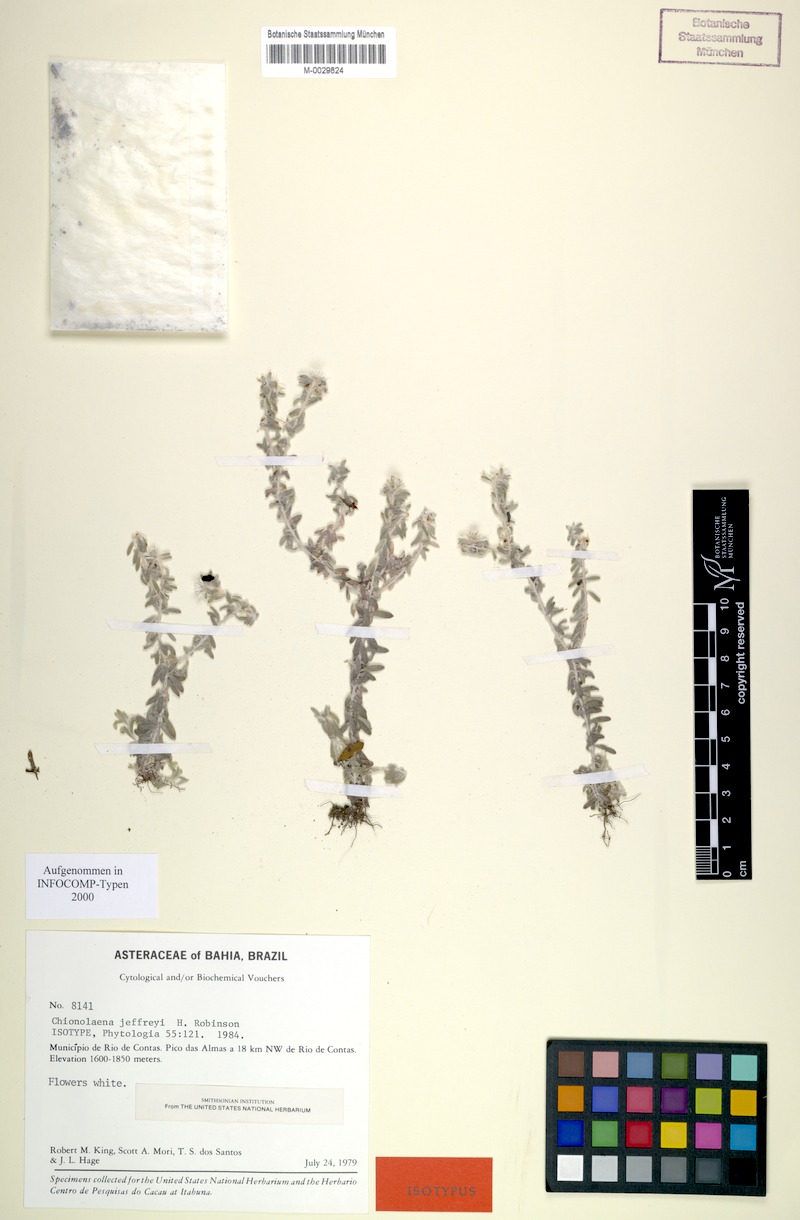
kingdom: Plantae
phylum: Tracheophyta
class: Magnoliopsida
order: Asterales
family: Asteraceae
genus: Chionolaena
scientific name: Chionolaena jeffreyi
